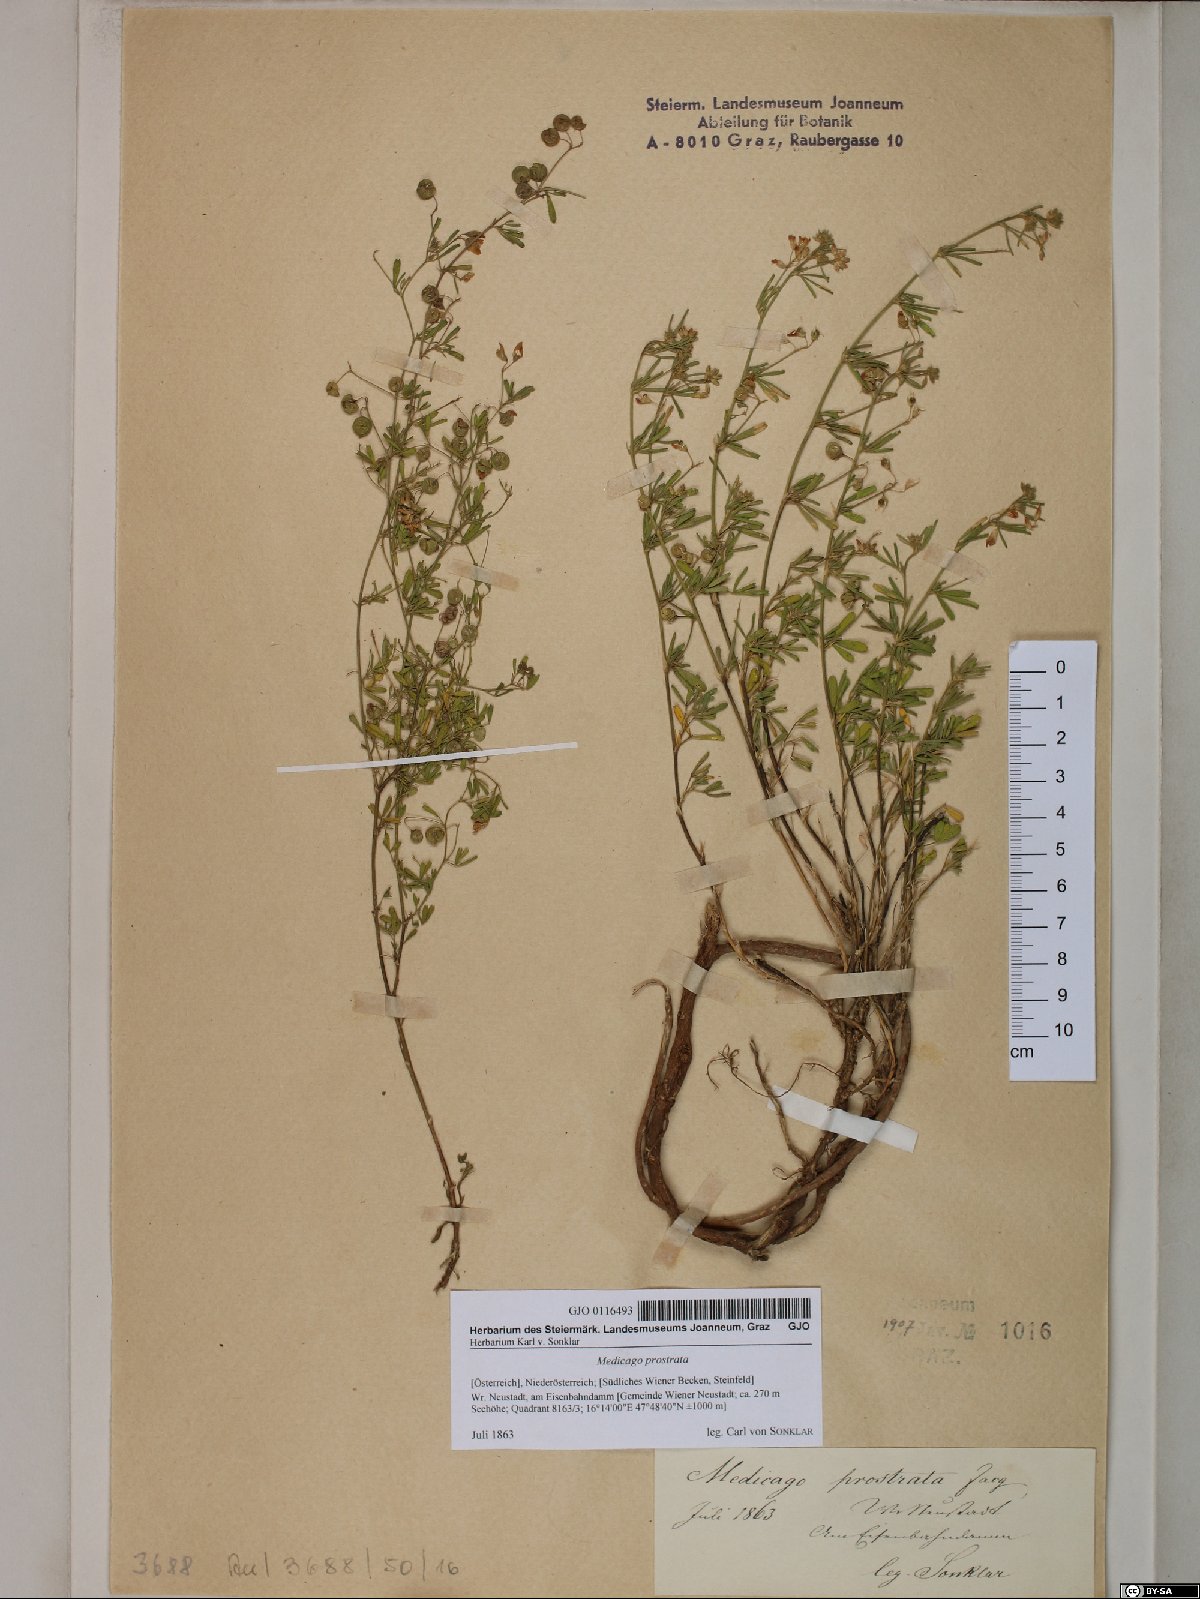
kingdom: Plantae
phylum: Tracheophyta
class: Magnoliopsida
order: Fabales
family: Fabaceae
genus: Medicago
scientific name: Medicago prostrata
